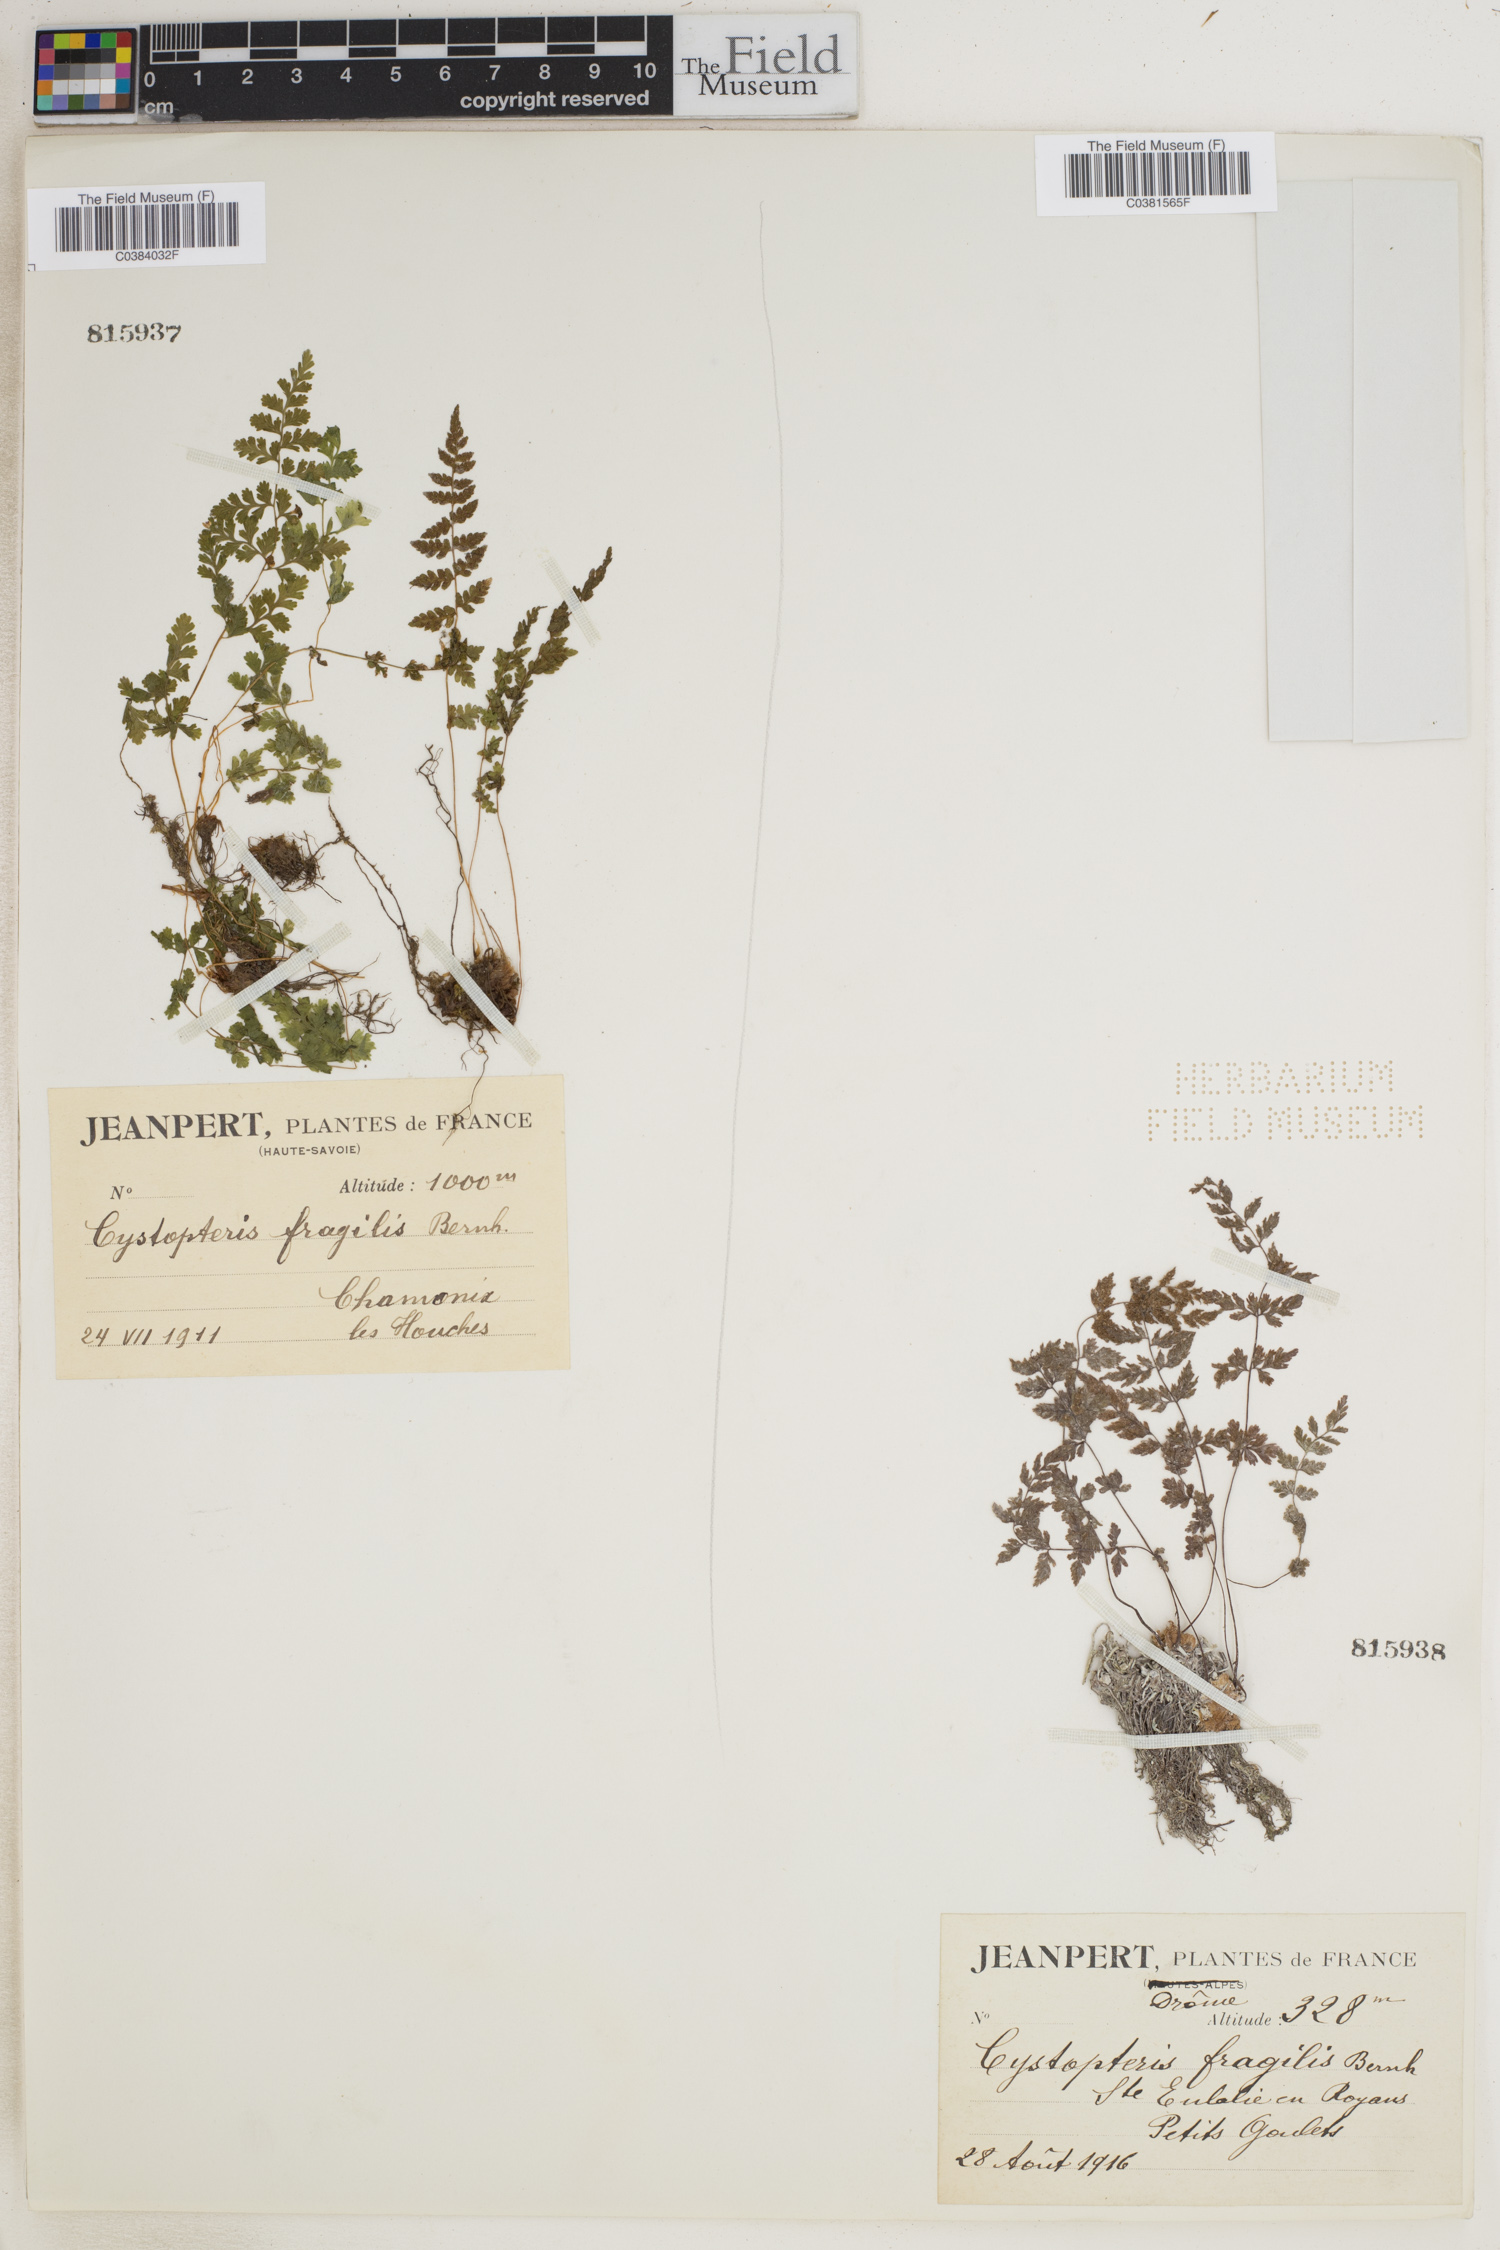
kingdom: Plantae
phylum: Tracheophyta
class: Polypodiopsida
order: Polypodiales
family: Cystopteridaceae
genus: Cystopteris
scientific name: Cystopteris fragilis
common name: Brittle bladder fern
